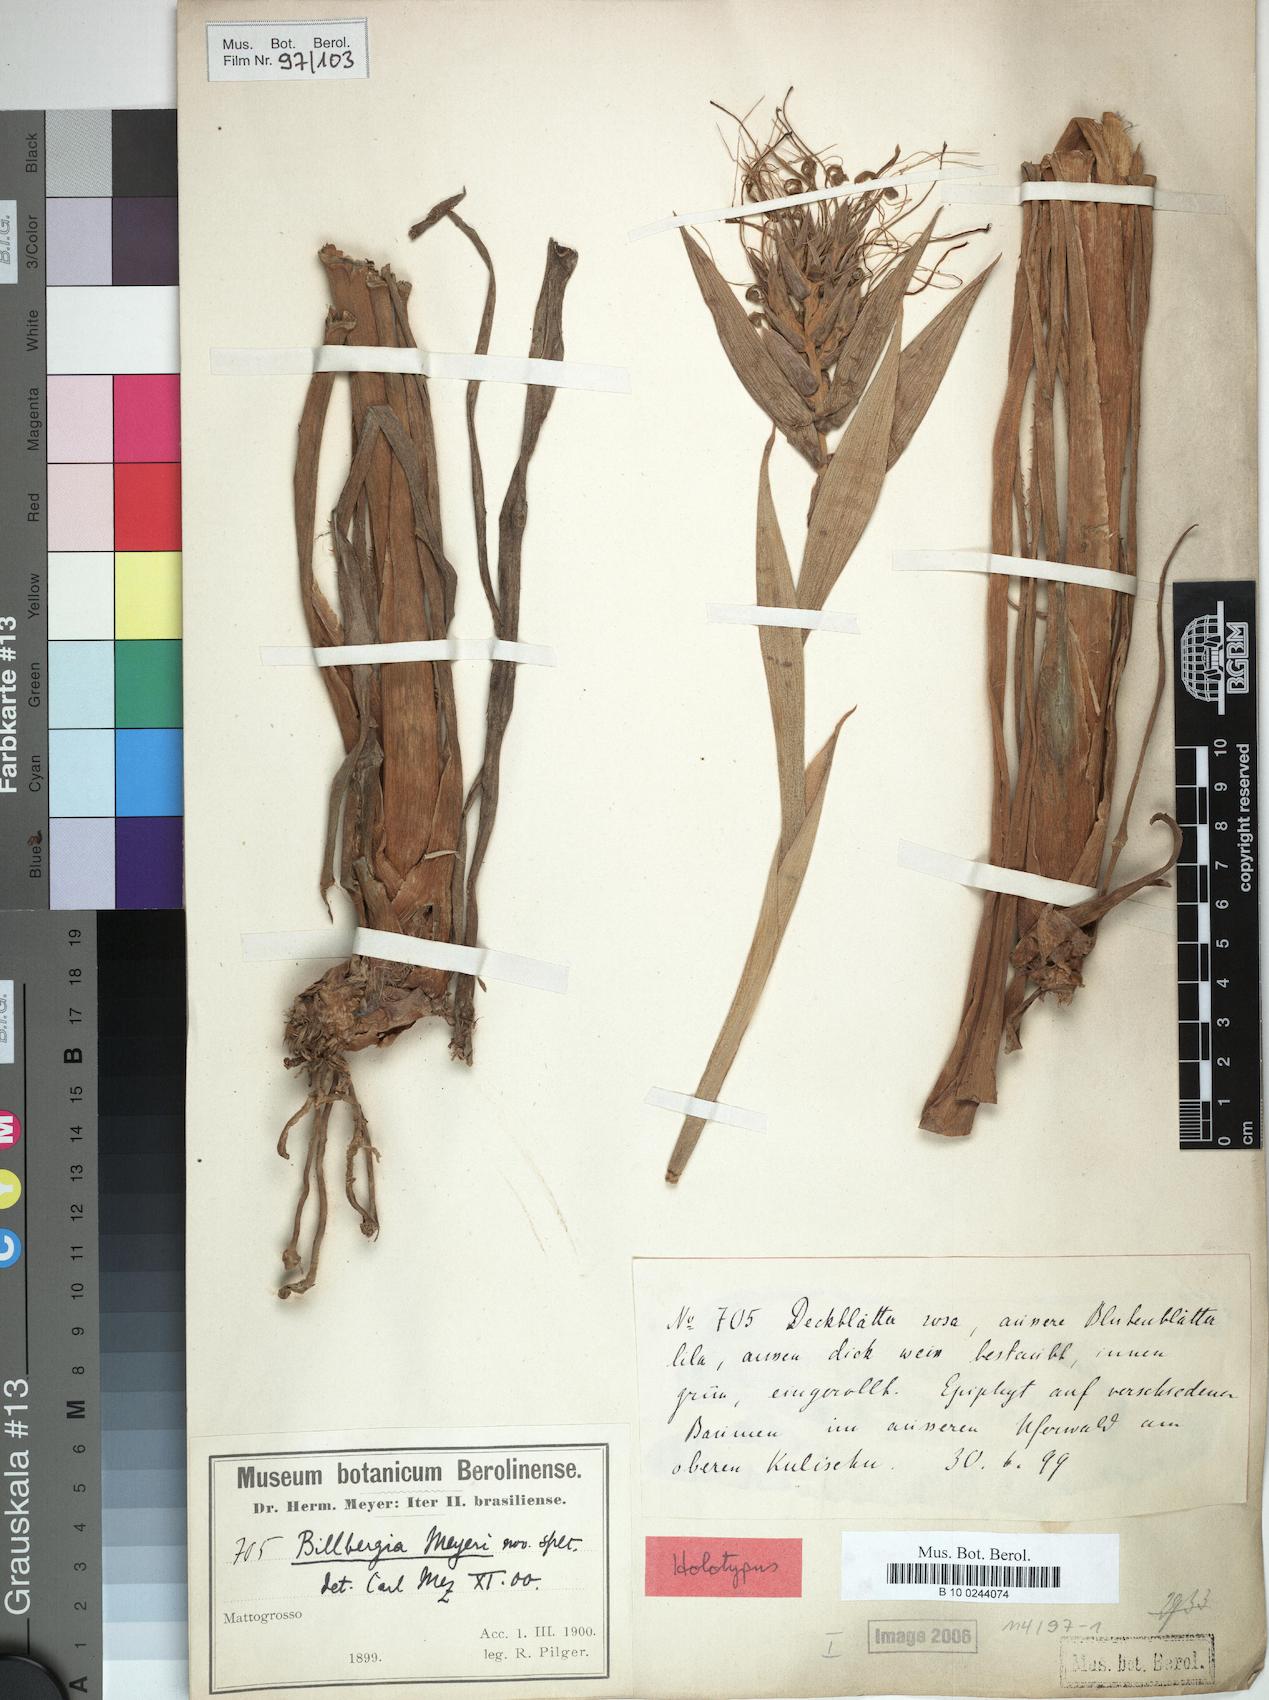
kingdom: Plantae
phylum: Tracheophyta
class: Liliopsida
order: Poales
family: Bromeliaceae
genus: Billbergia
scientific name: Billbergia meyeri
